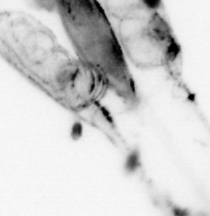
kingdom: Animalia
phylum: Chaetognatha
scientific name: Chaetognatha
